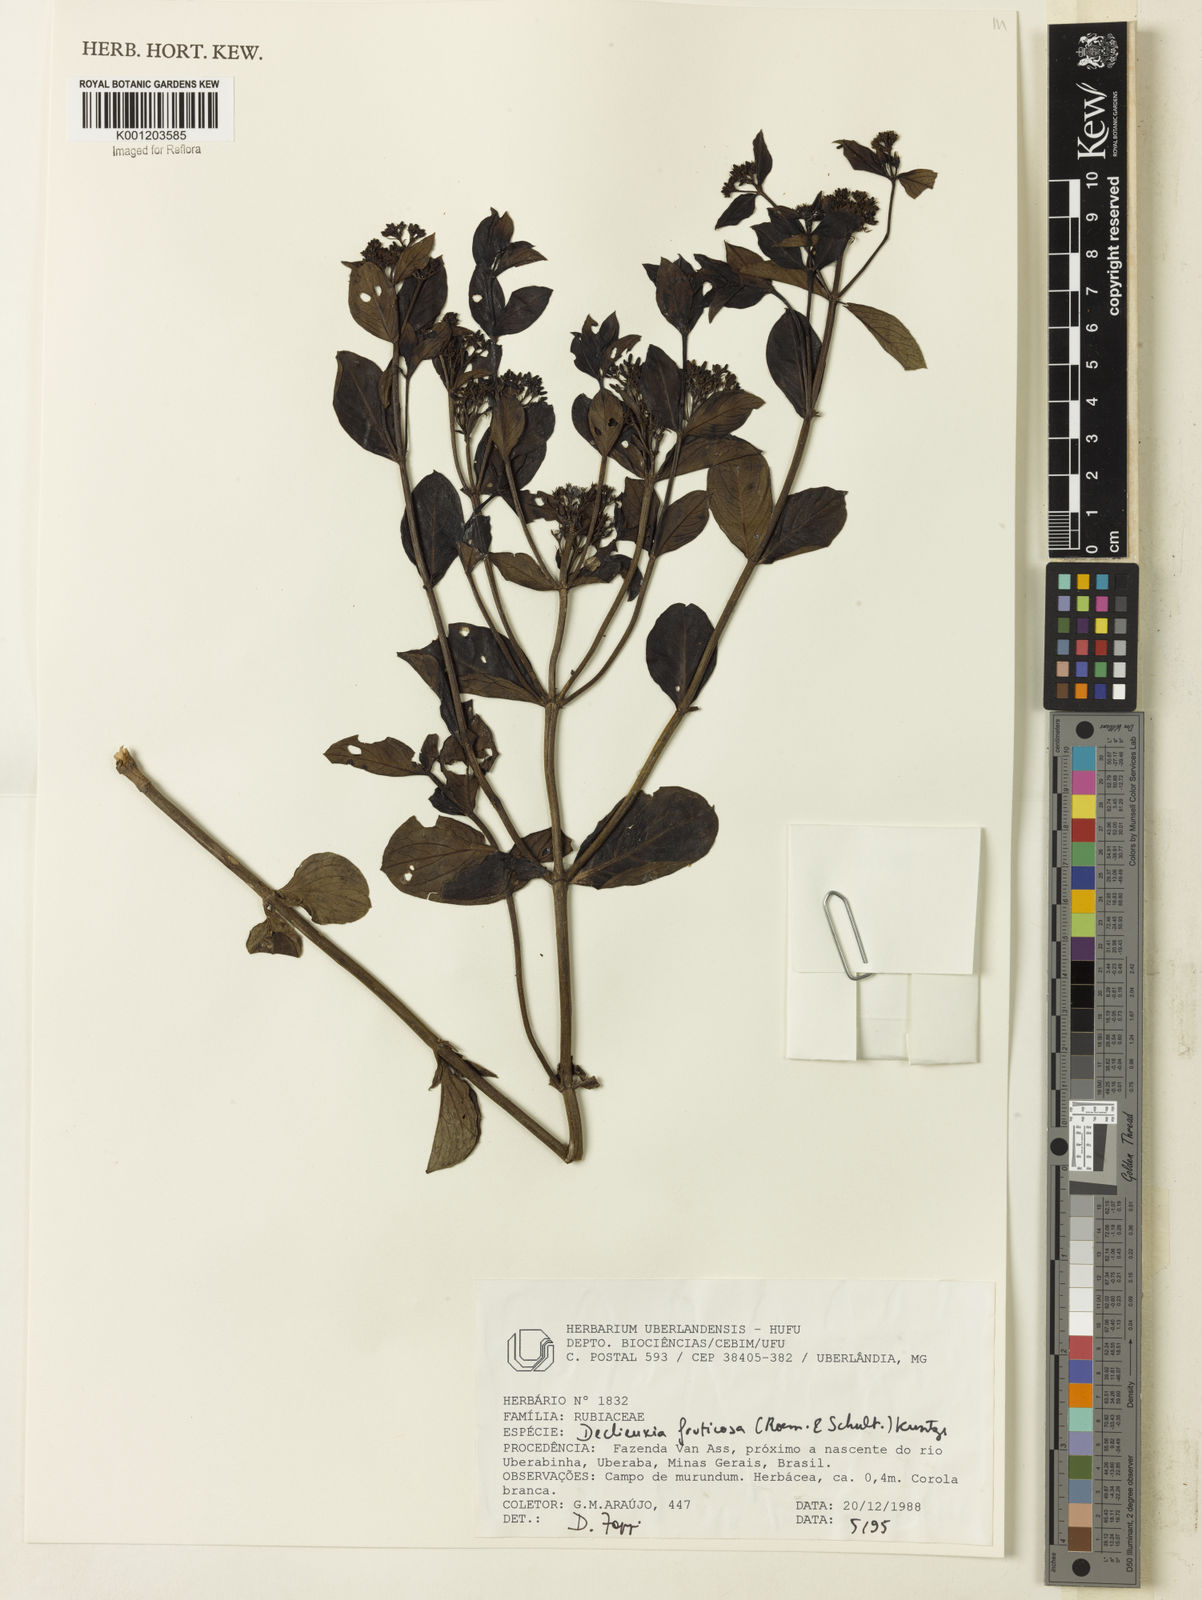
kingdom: Plantae
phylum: Tracheophyta
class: Magnoliopsida
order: Gentianales
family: Rubiaceae
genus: Declieuxia
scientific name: Declieuxia fruticosa
